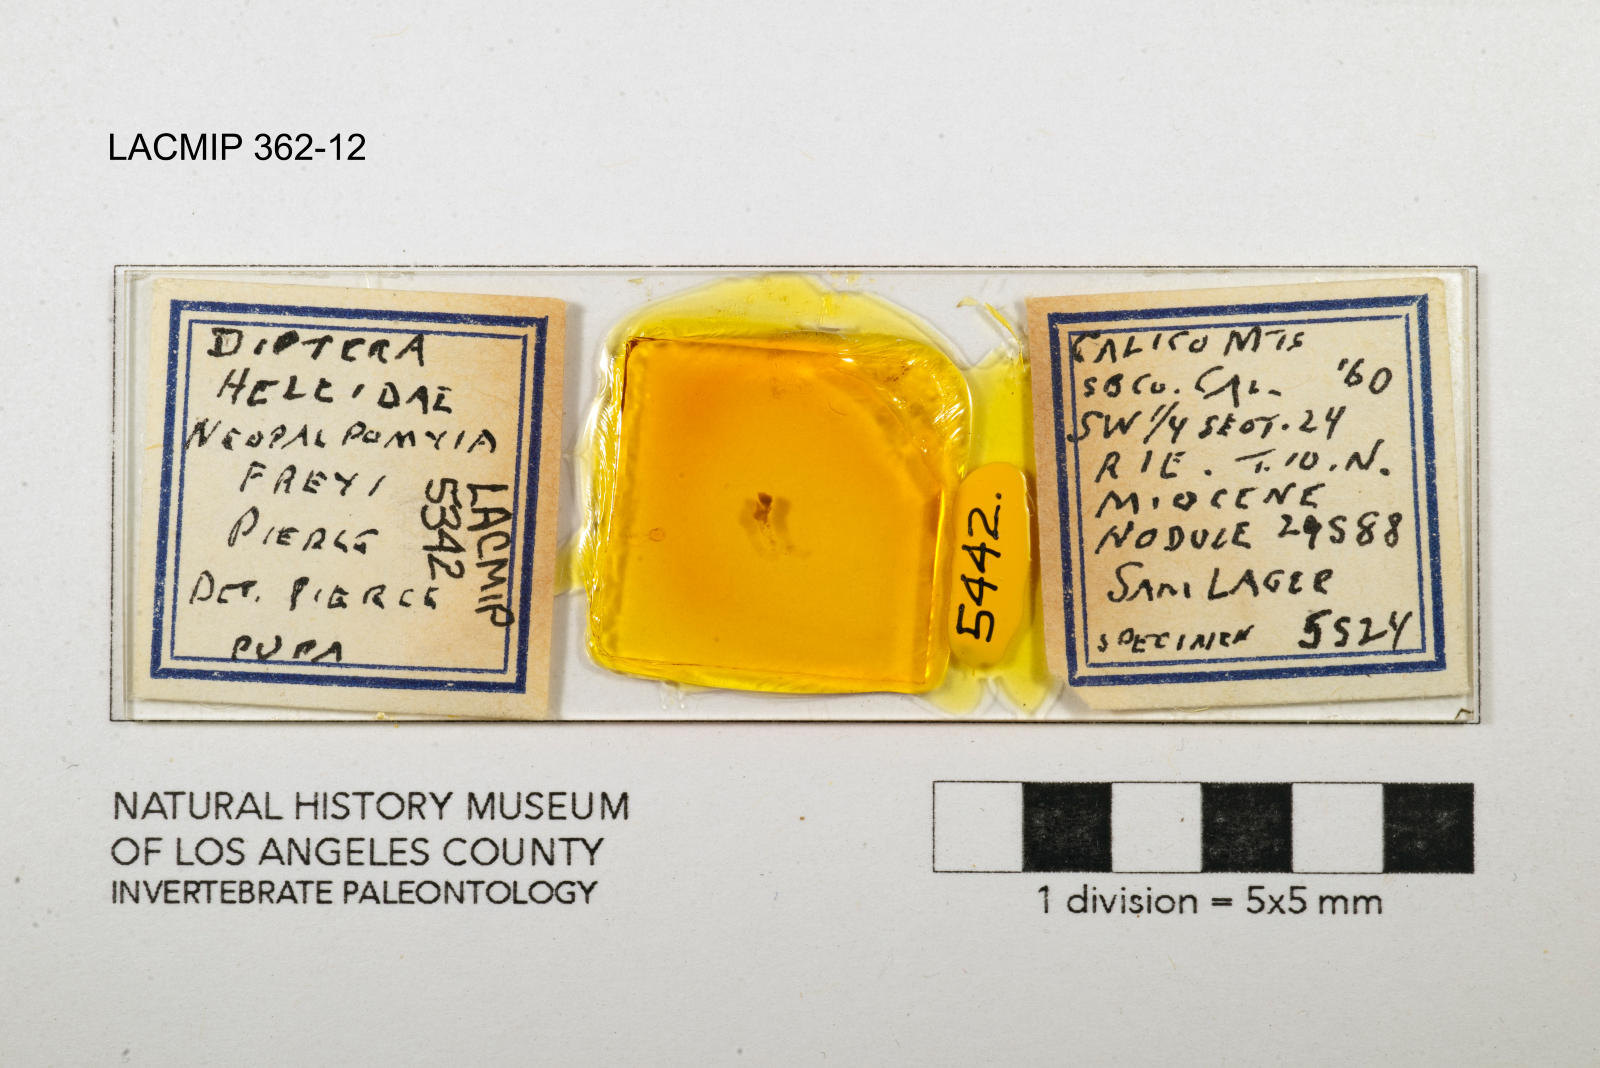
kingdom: Animalia
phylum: Arthropoda
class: Insecta
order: Diptera
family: Ceratopogonidae
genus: Palpomyia
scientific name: Palpomyia freyi
